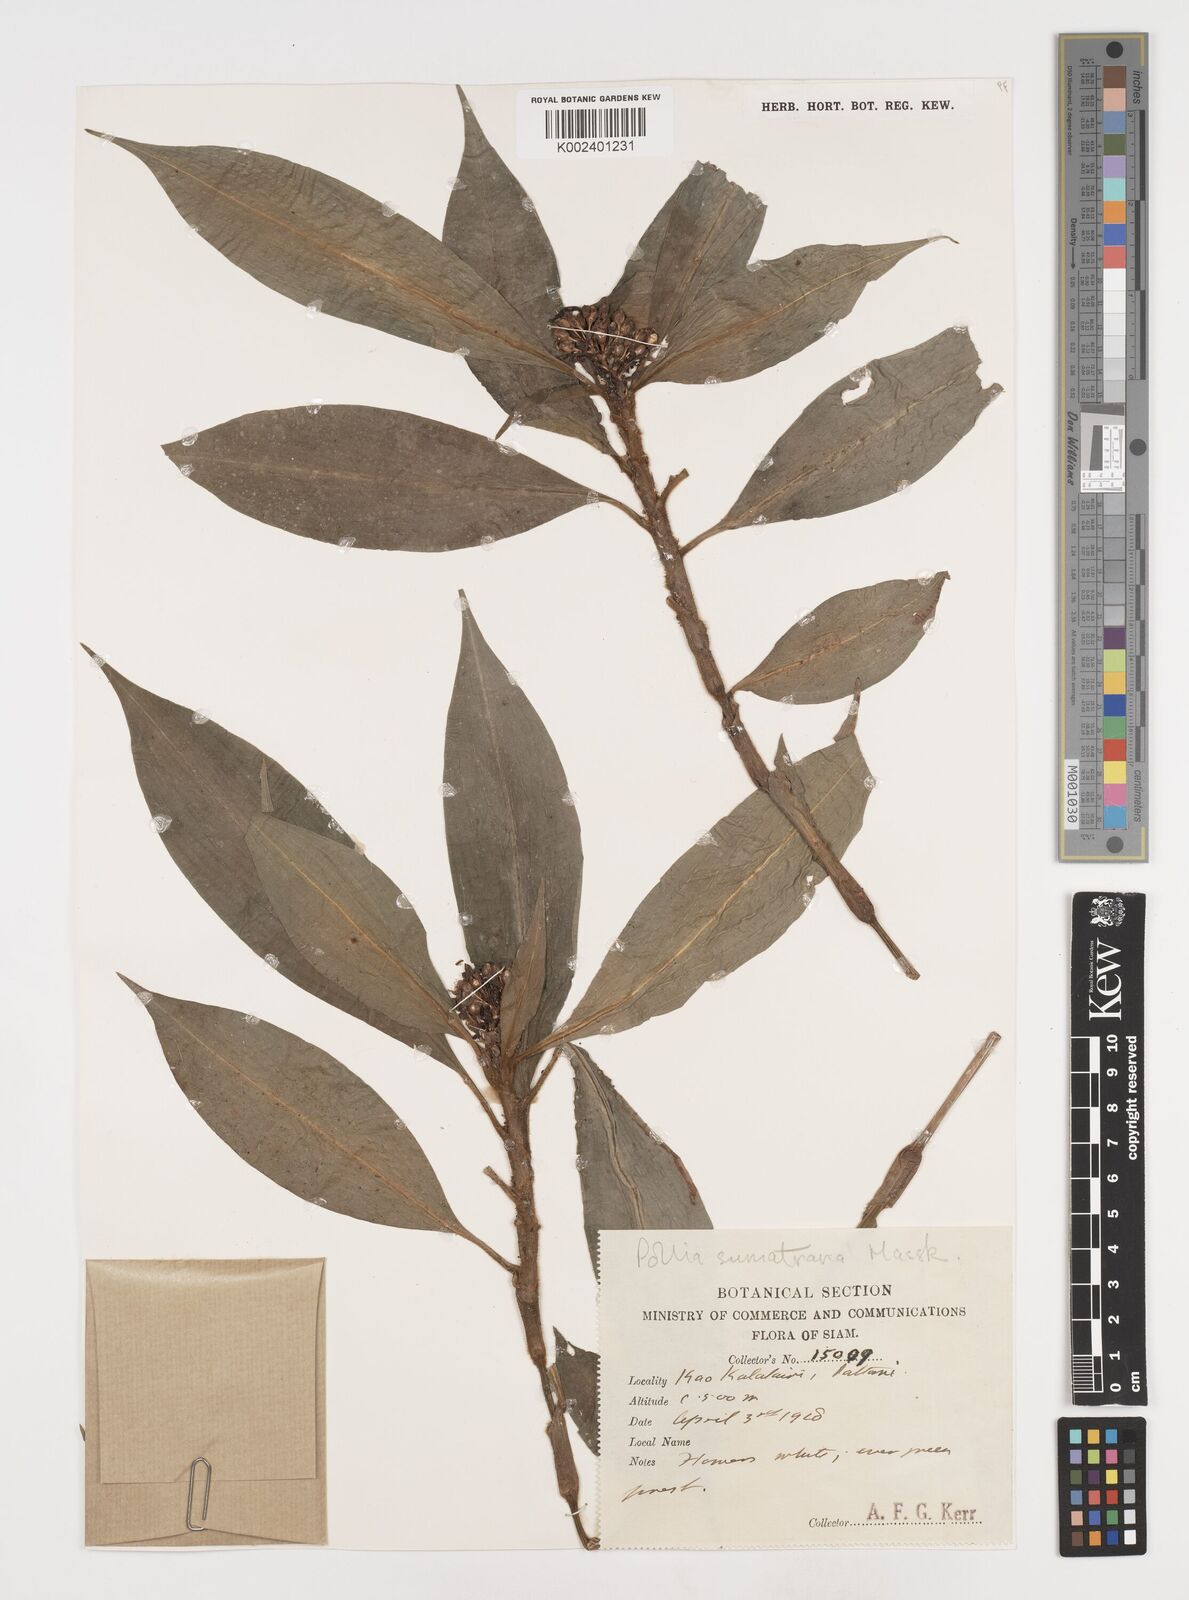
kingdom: Plantae
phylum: Tracheophyta
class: Liliopsida
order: Commelinales
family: Commelinaceae
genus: Pollia
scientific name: Pollia sumatrana
